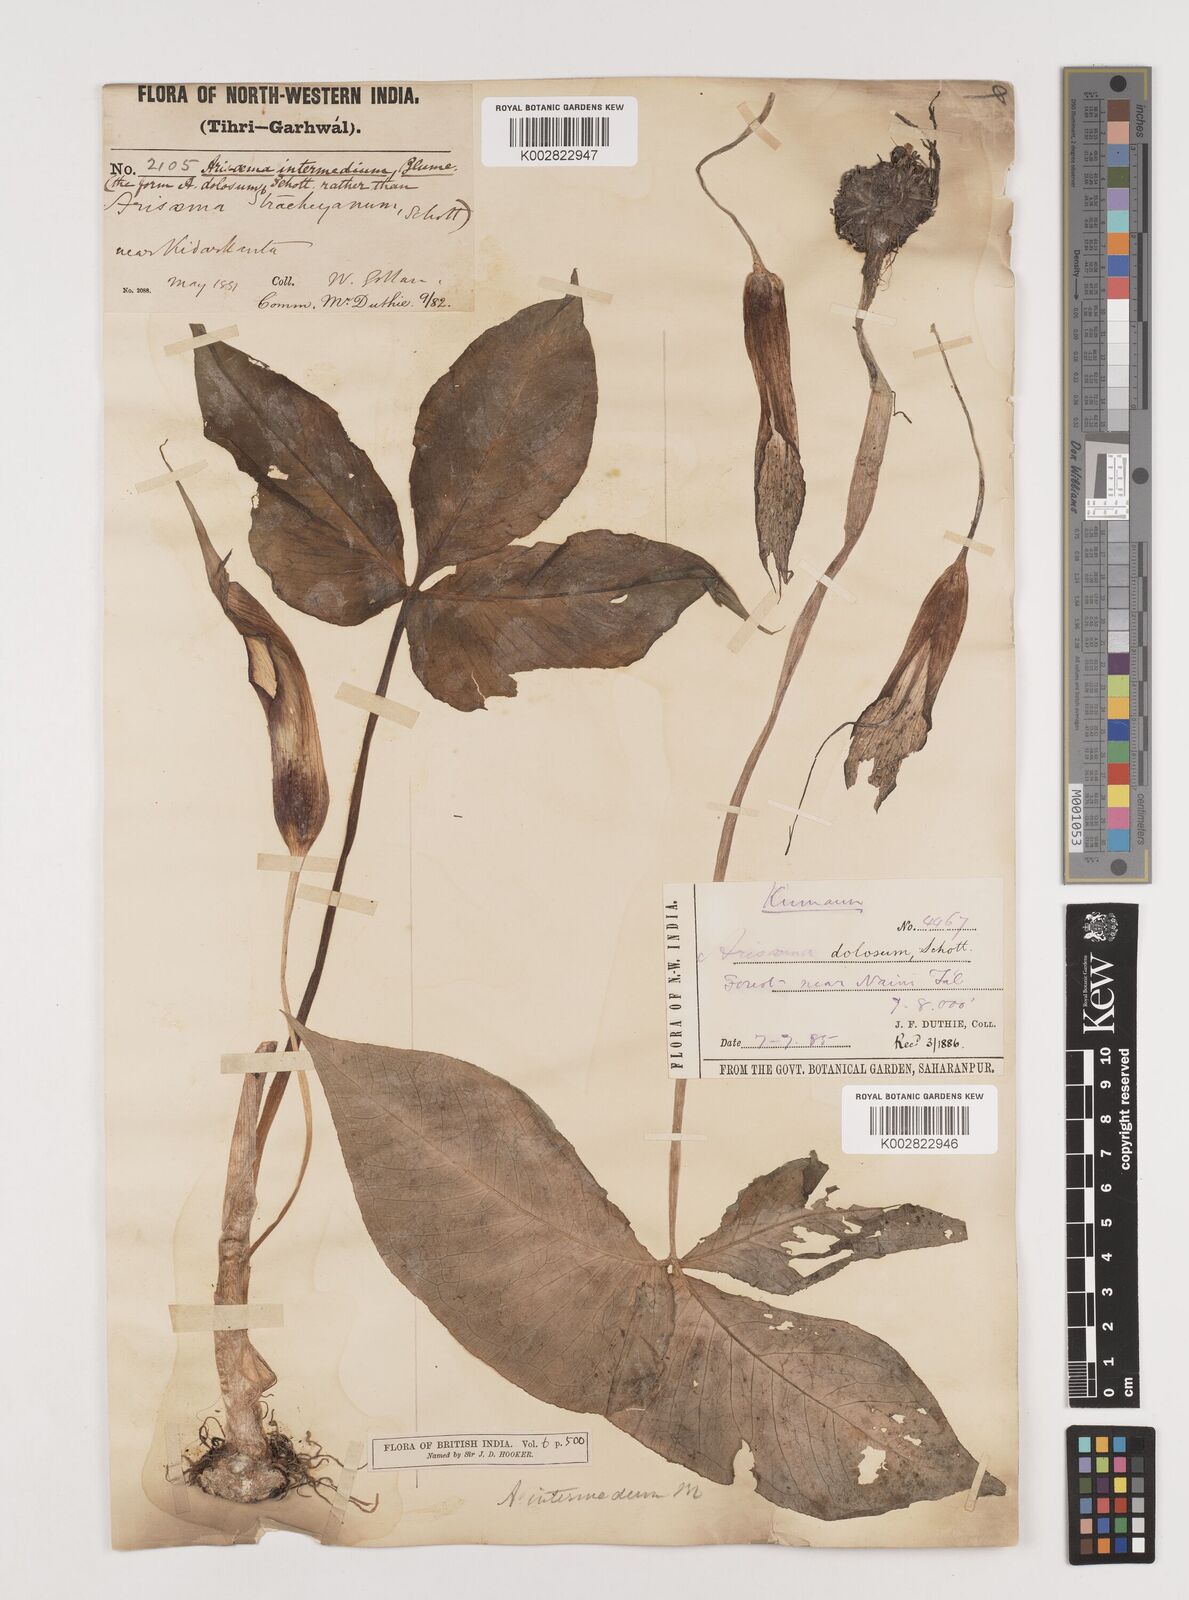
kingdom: Plantae
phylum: Tracheophyta
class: Liliopsida
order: Alismatales
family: Araceae
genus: Arisaema
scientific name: Arisaema intermedium
